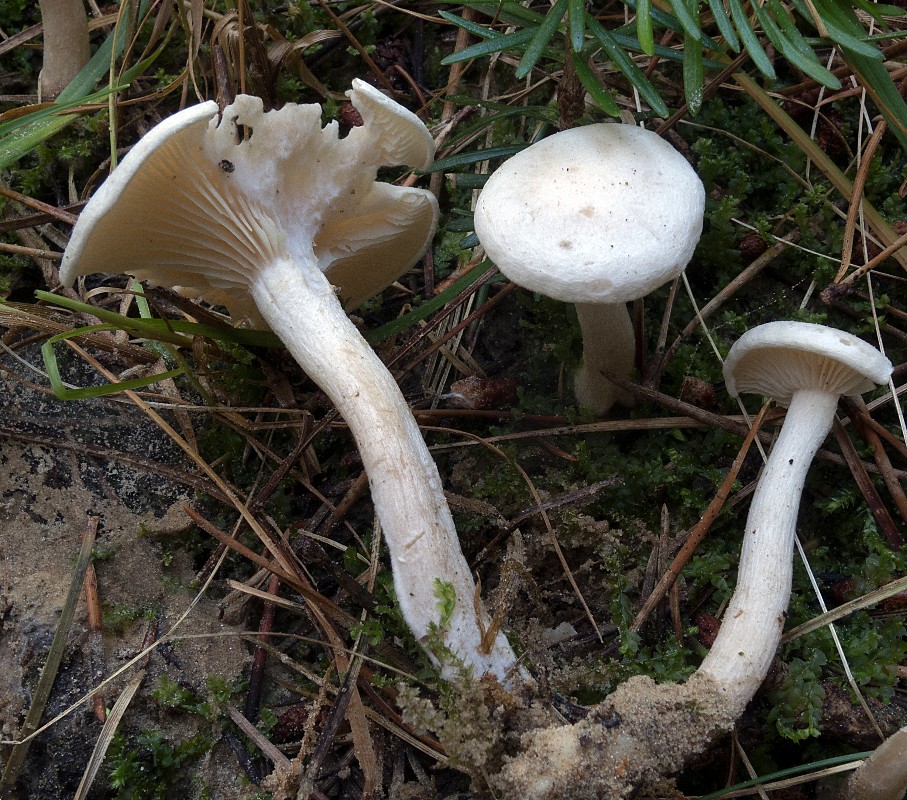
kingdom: Fungi
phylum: Basidiomycota
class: Agaricomycetes
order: Agaricales
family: Tricholomataceae
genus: Clitocybe
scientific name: Clitocybe rivulosa
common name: eng-tragthat
